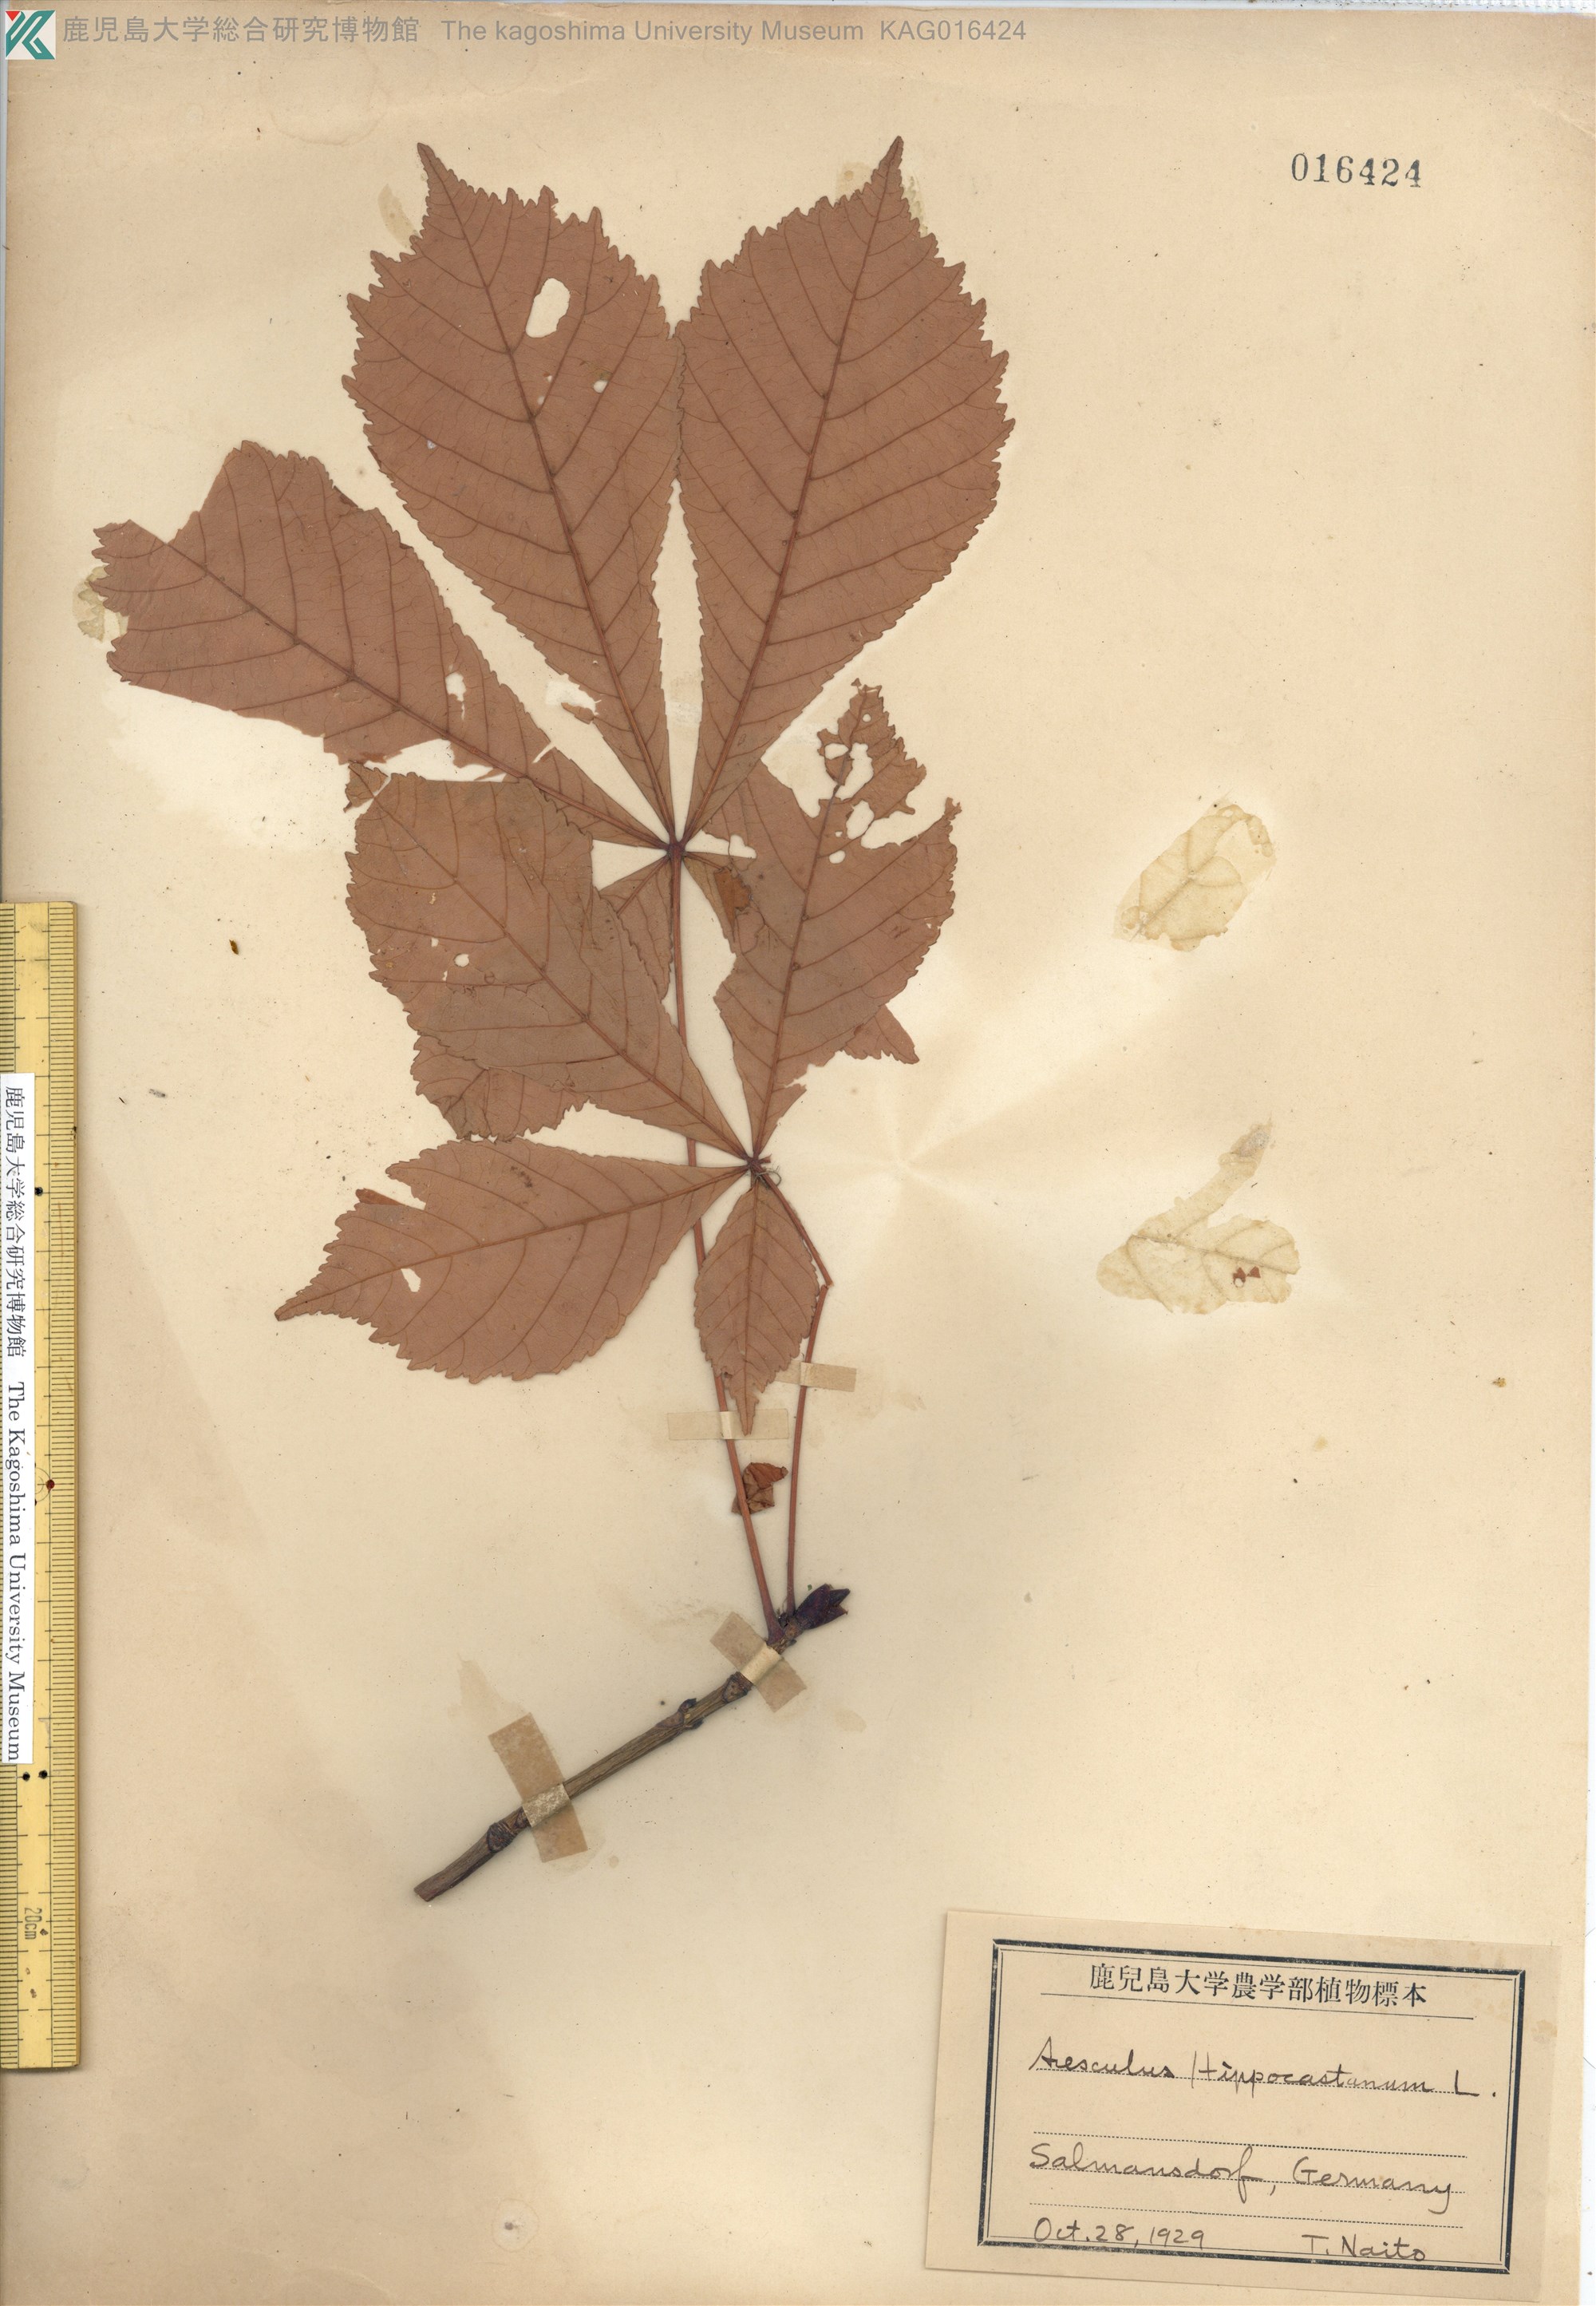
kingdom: Plantae
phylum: Tracheophyta
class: Magnoliopsida
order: Sapindales
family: Sapindaceae
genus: Aesculus
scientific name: Aesculus hippocastanum
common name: Horse-chestnut
